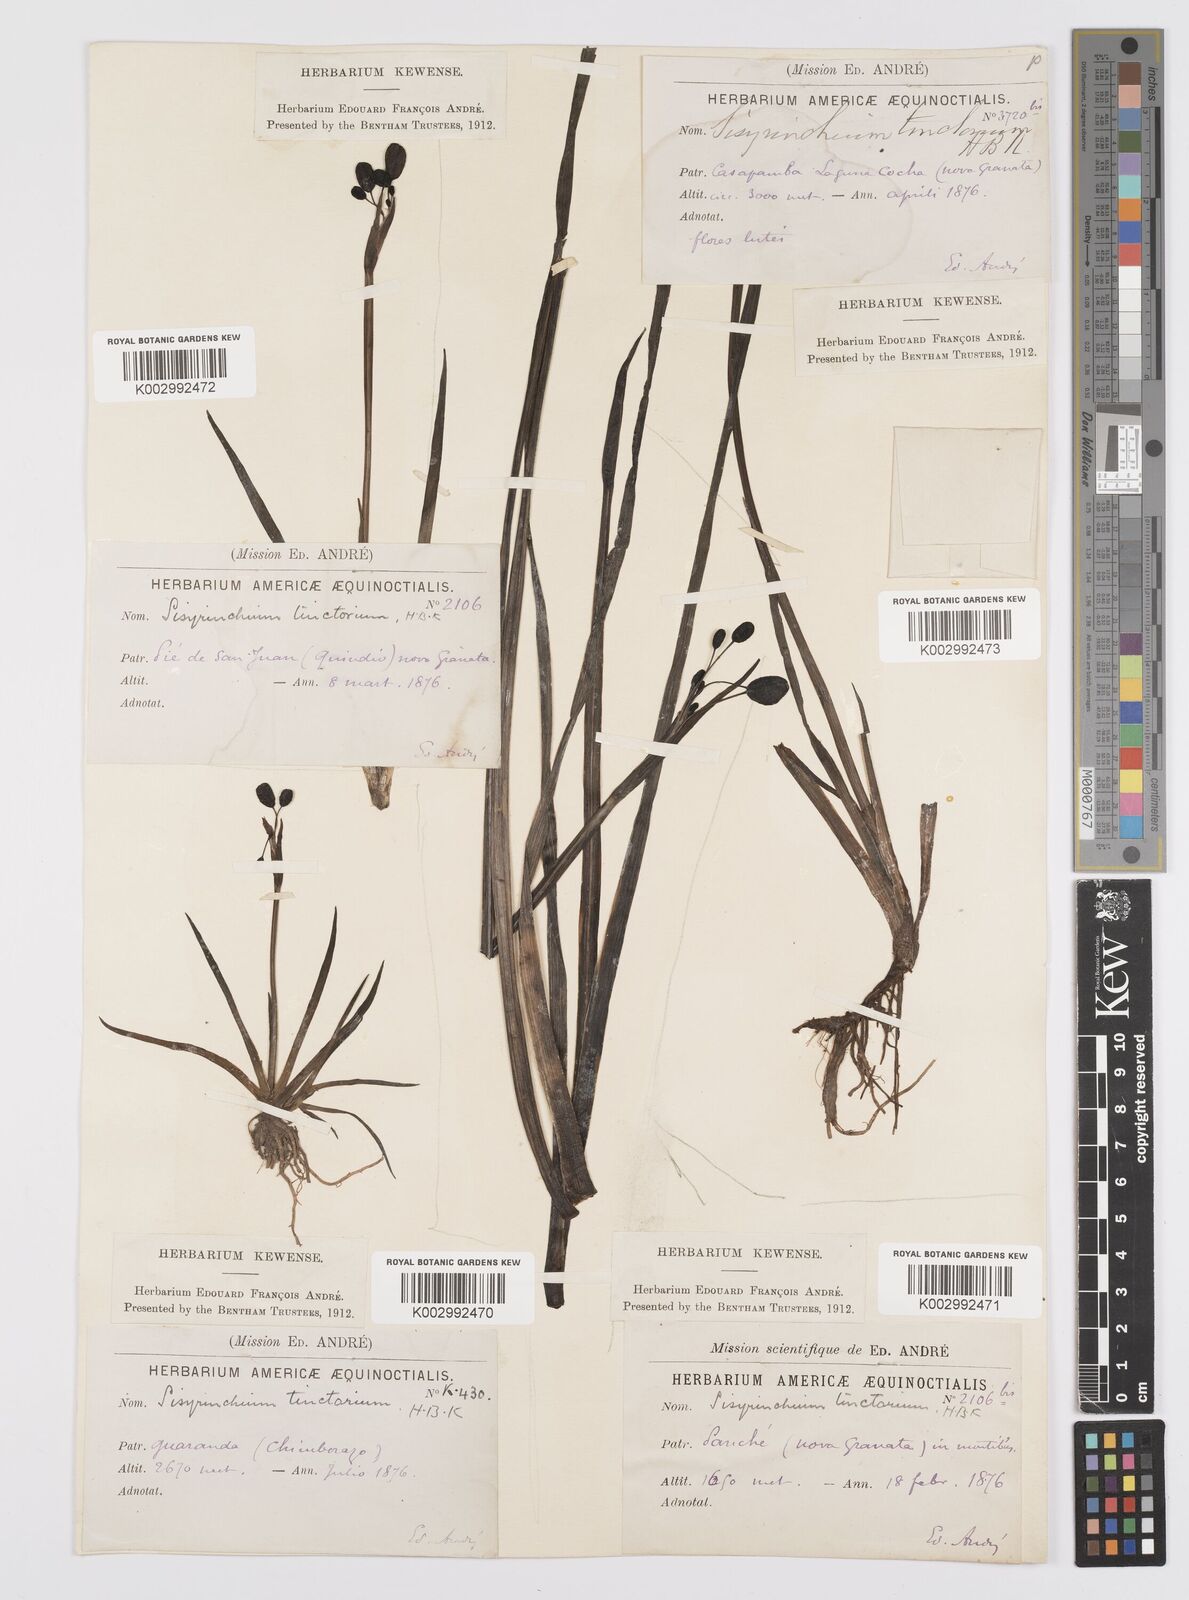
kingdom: Plantae
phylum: Tracheophyta
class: Liliopsida
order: Asparagales
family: Iridaceae
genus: Sisyrinchium
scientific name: Sisyrinchium tinctorium
